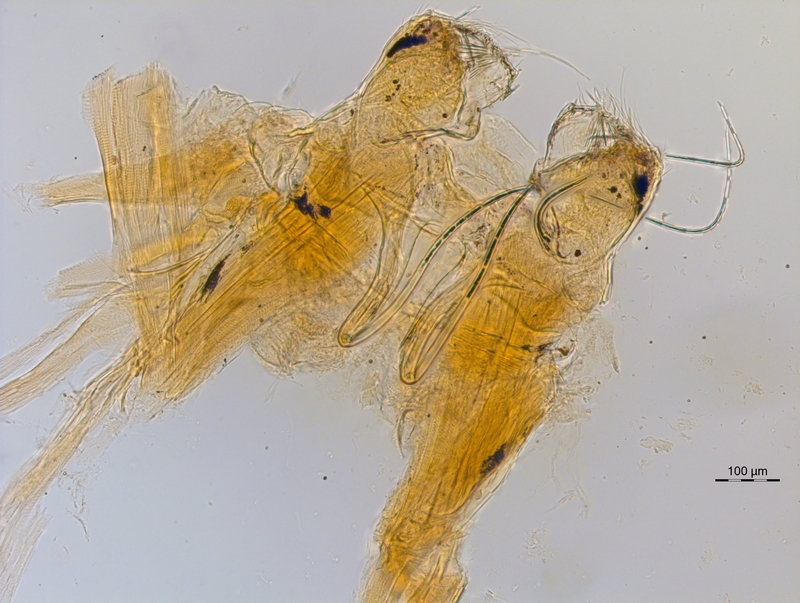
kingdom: Animalia
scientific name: Animalia
